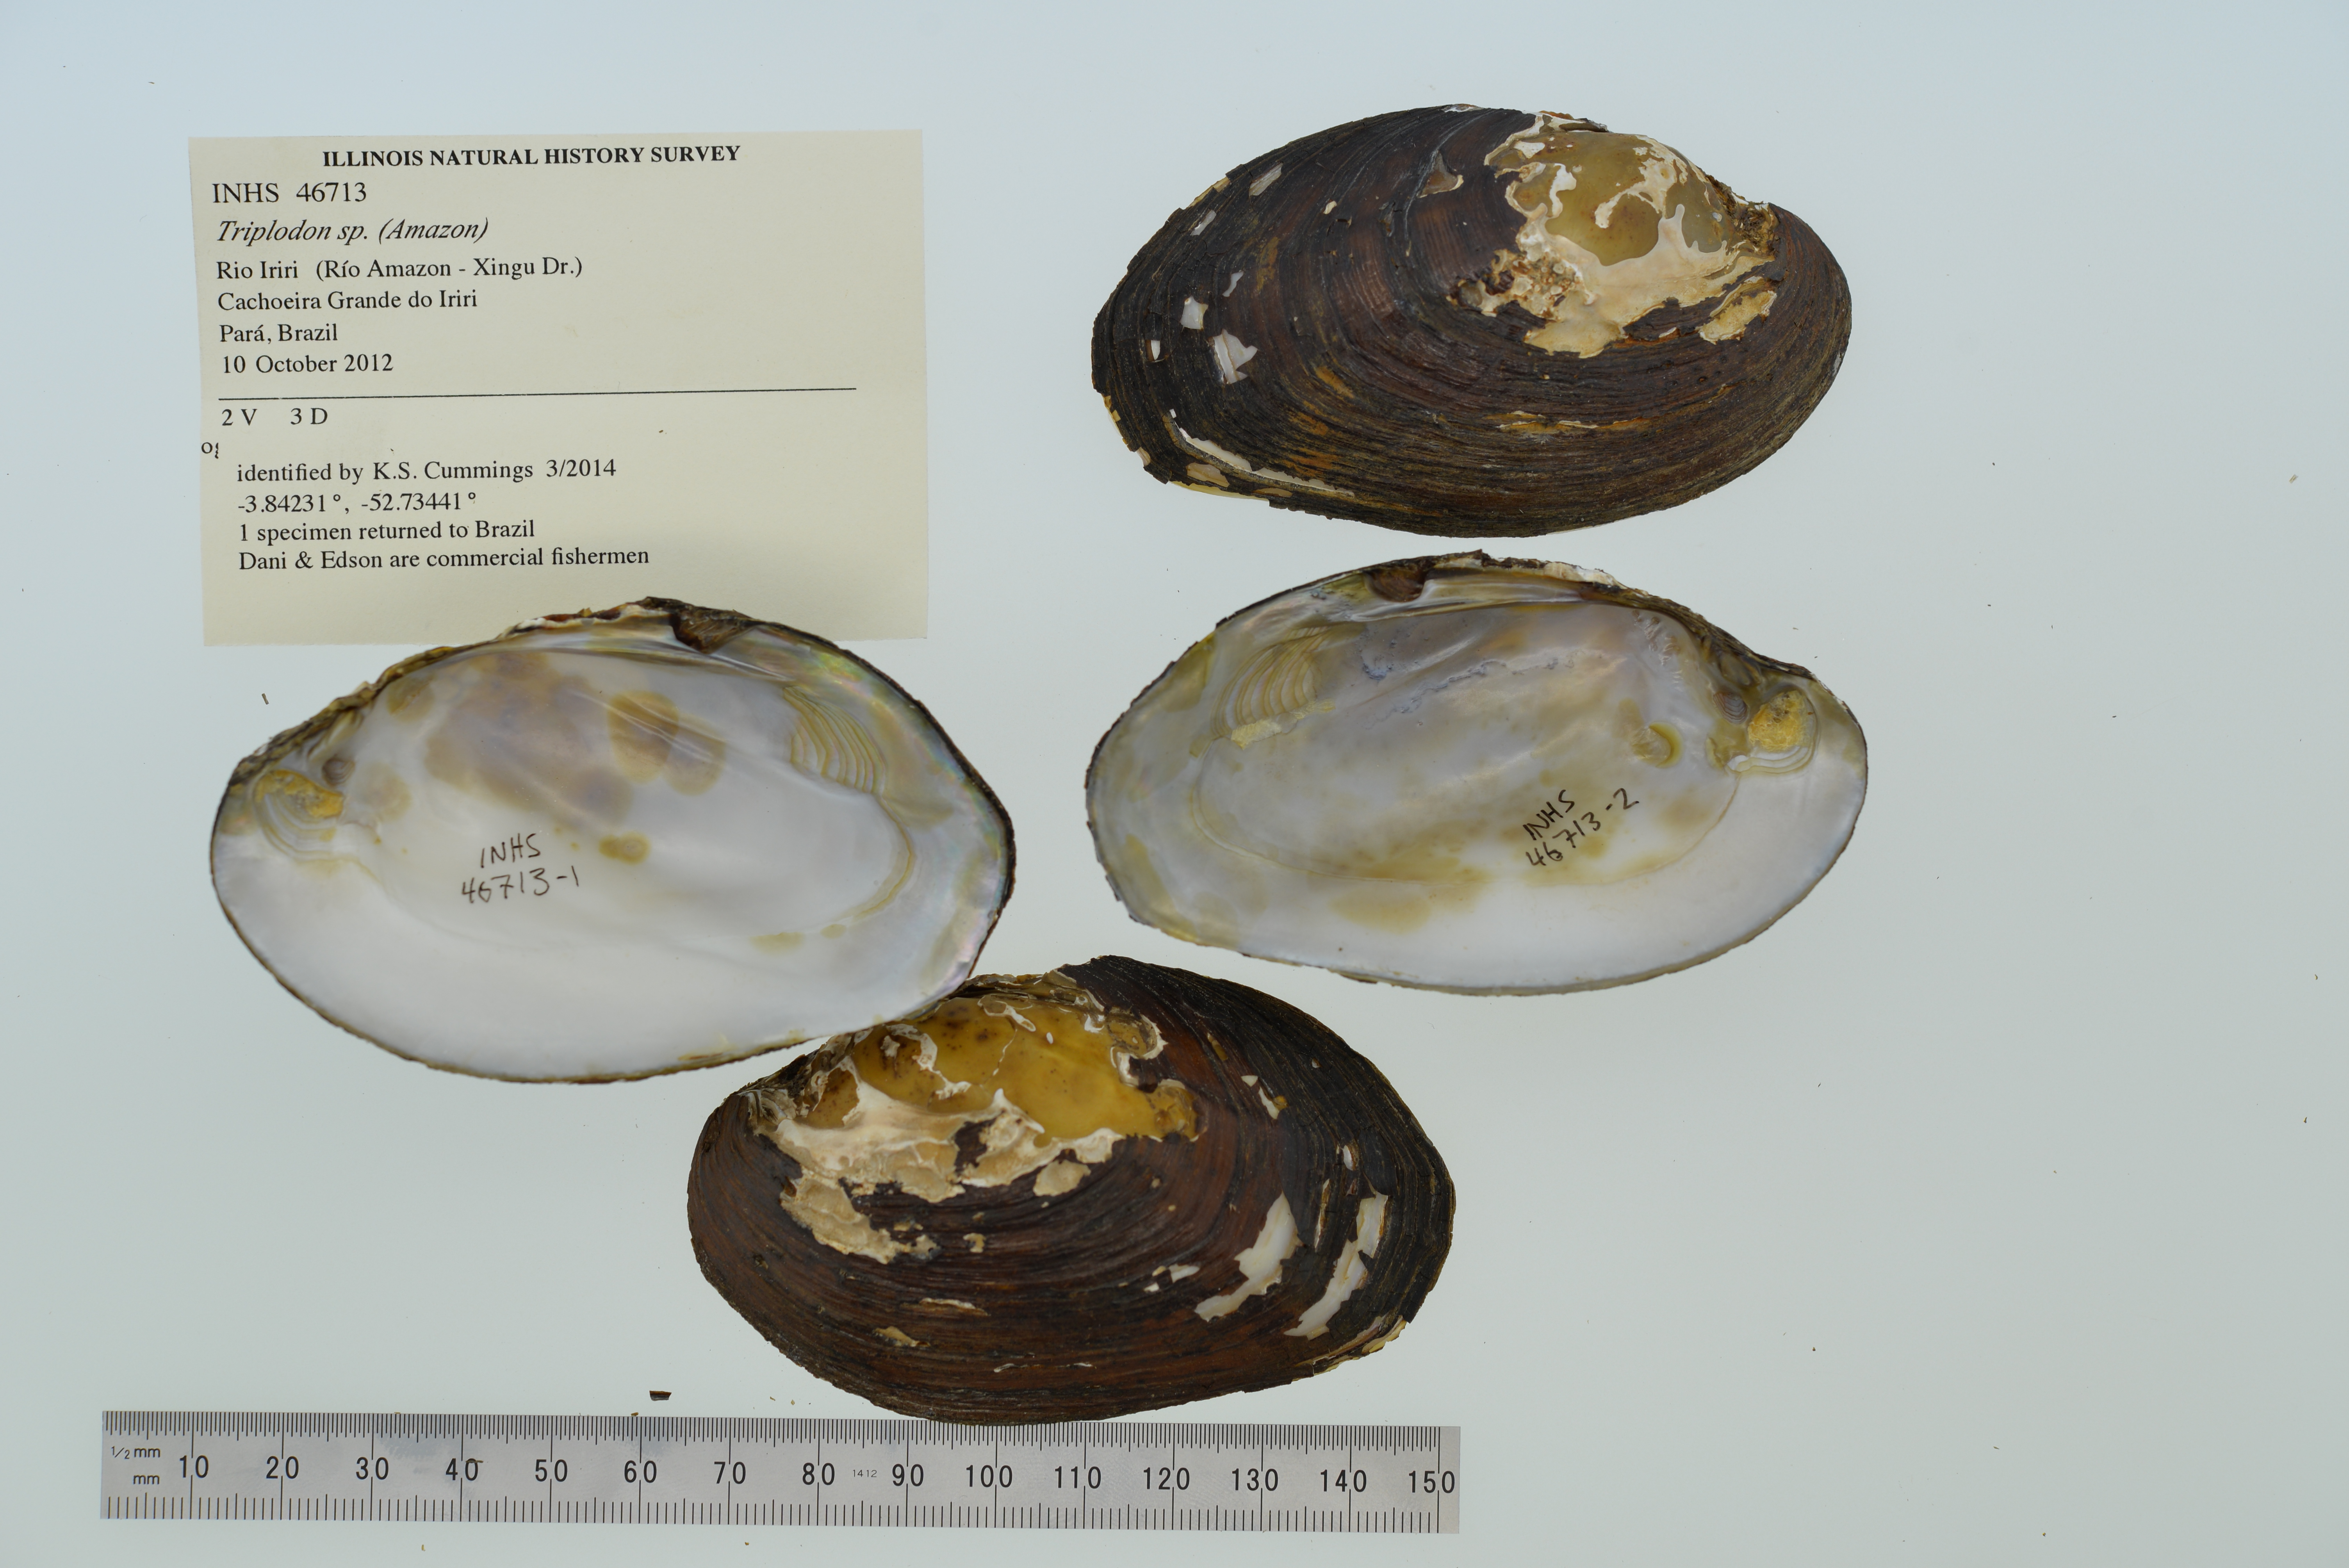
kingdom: Animalia
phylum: Mollusca
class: Bivalvia
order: Unionida
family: Hyriidae
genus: Diplodon
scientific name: Diplodon
